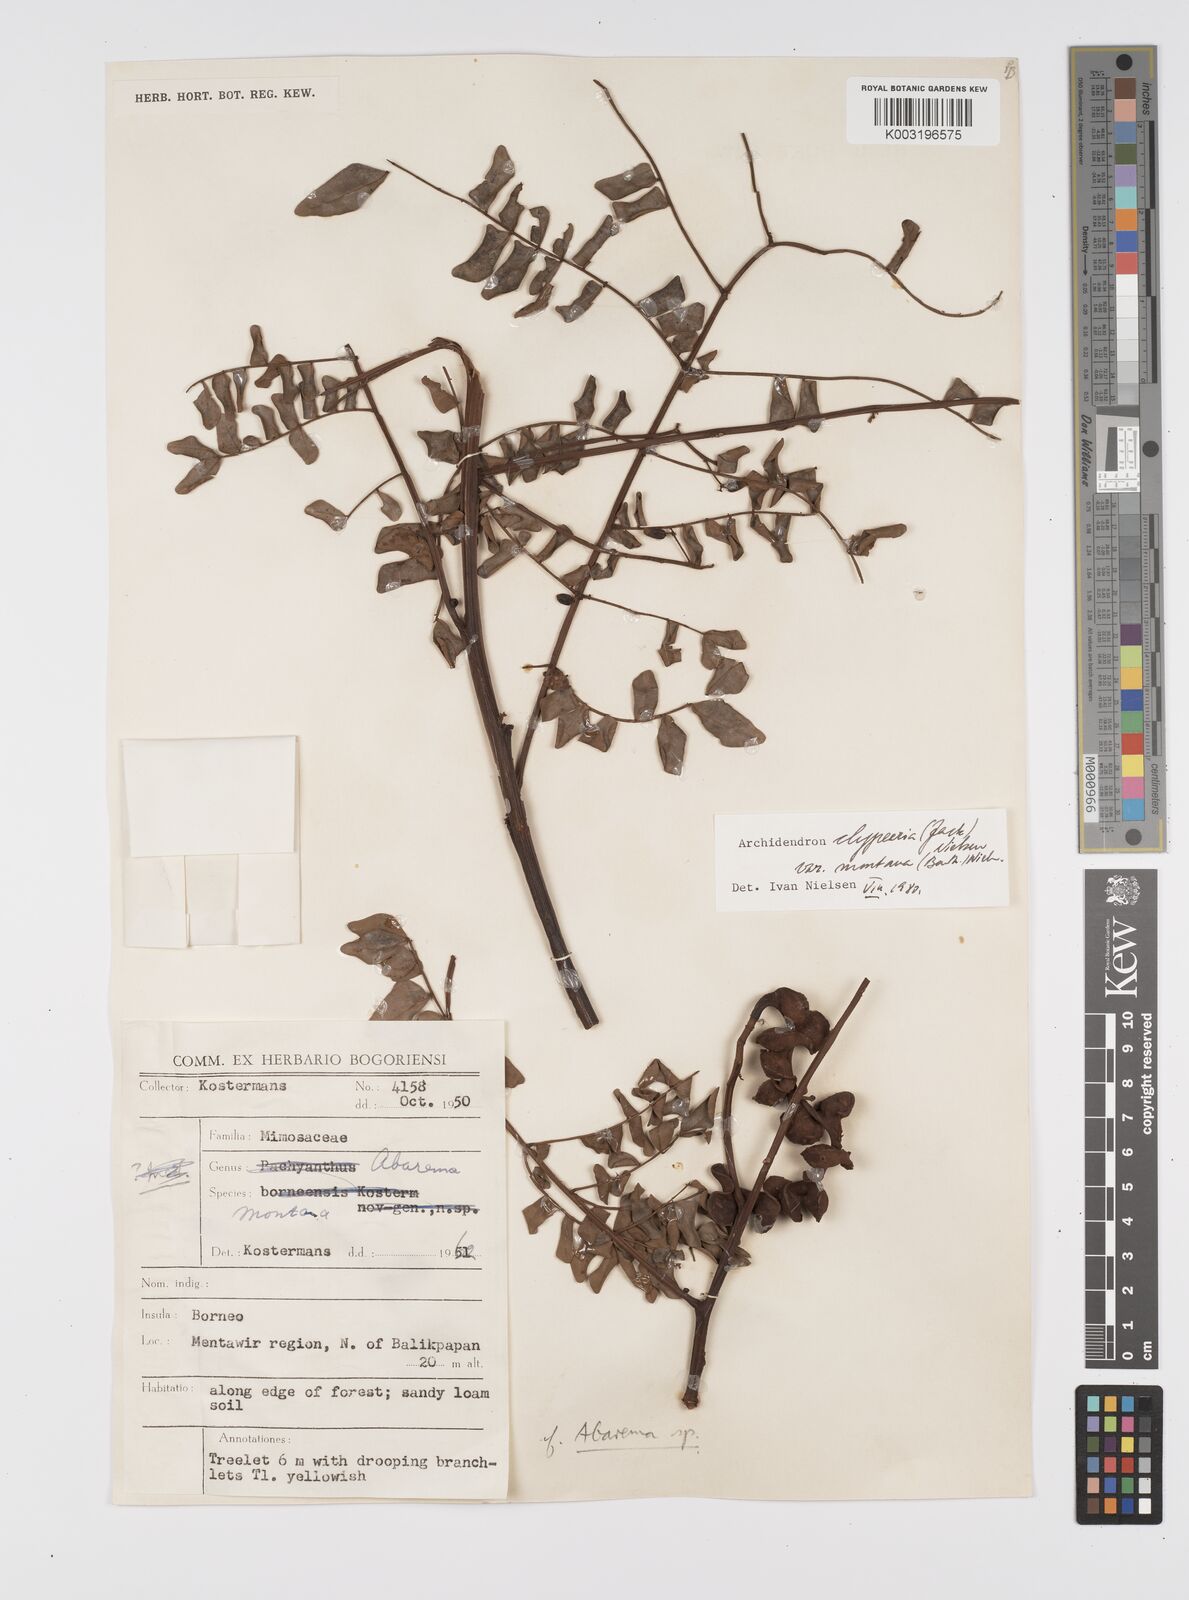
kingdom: Plantae
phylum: Tracheophyta
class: Magnoliopsida
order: Fabales
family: Fabaceae
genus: Archidendron
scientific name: Archidendron clypearia
